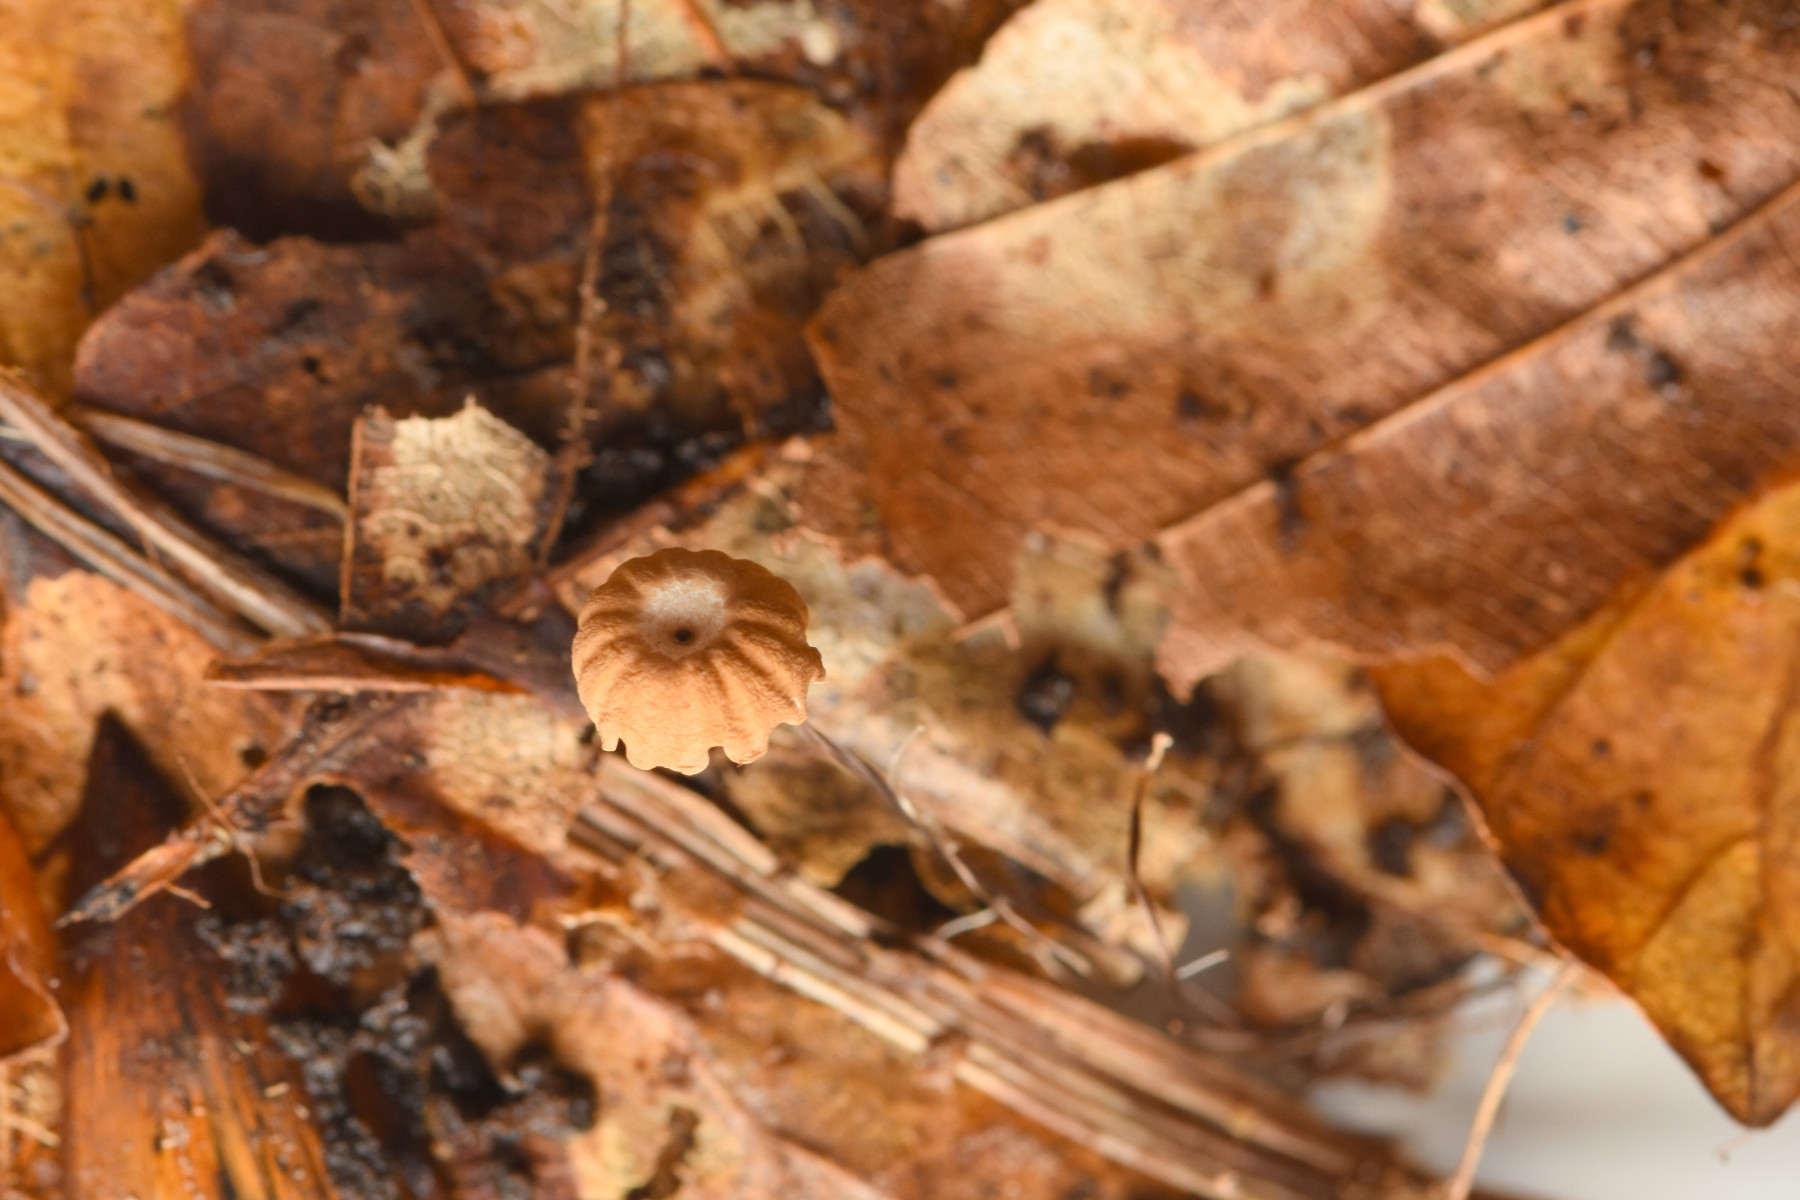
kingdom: Fungi
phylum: Basidiomycota
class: Agaricomycetes
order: Agaricales
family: Marasmiaceae
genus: Marasmius
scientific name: Marasmius bulliardii
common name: furet bruskhat
